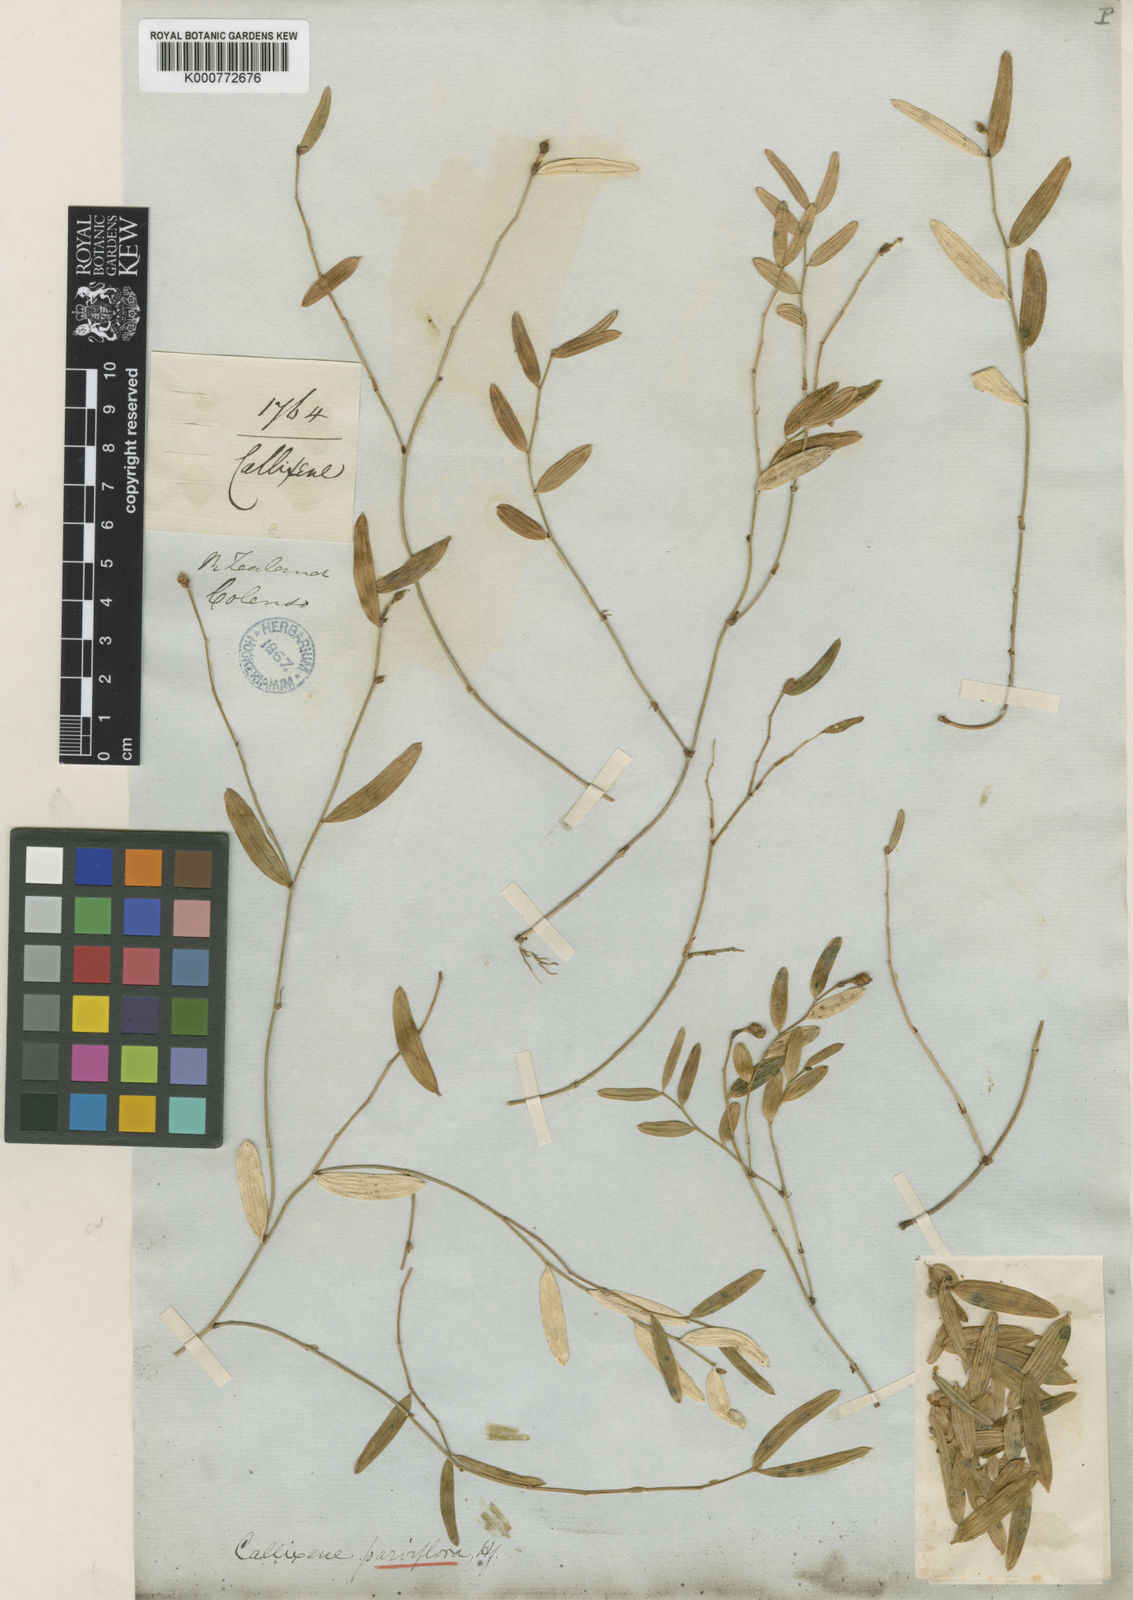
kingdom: Plantae
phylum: Tracheophyta
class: Liliopsida
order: Liliales
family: Alstroemeriaceae
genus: Luzuriaga
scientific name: Luzuriaga parviflora
